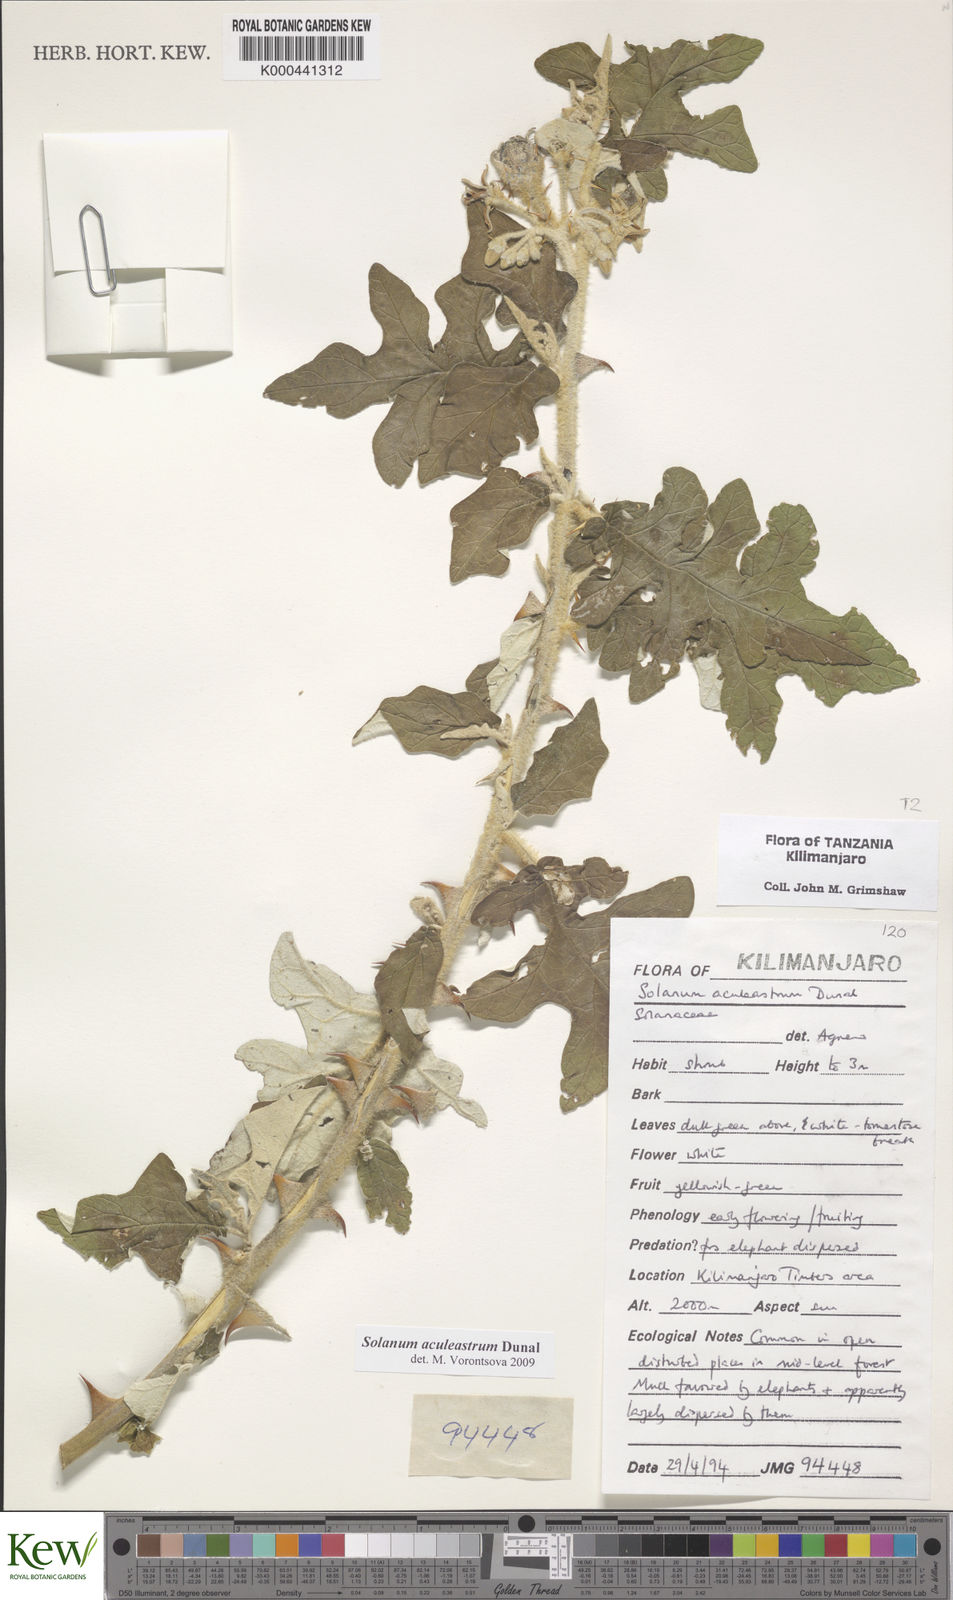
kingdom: Plantae
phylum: Tracheophyta
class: Magnoliopsida
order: Solanales
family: Solanaceae
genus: Solanum
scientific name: Solanum aculeastrum
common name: Goat bitter-apple
